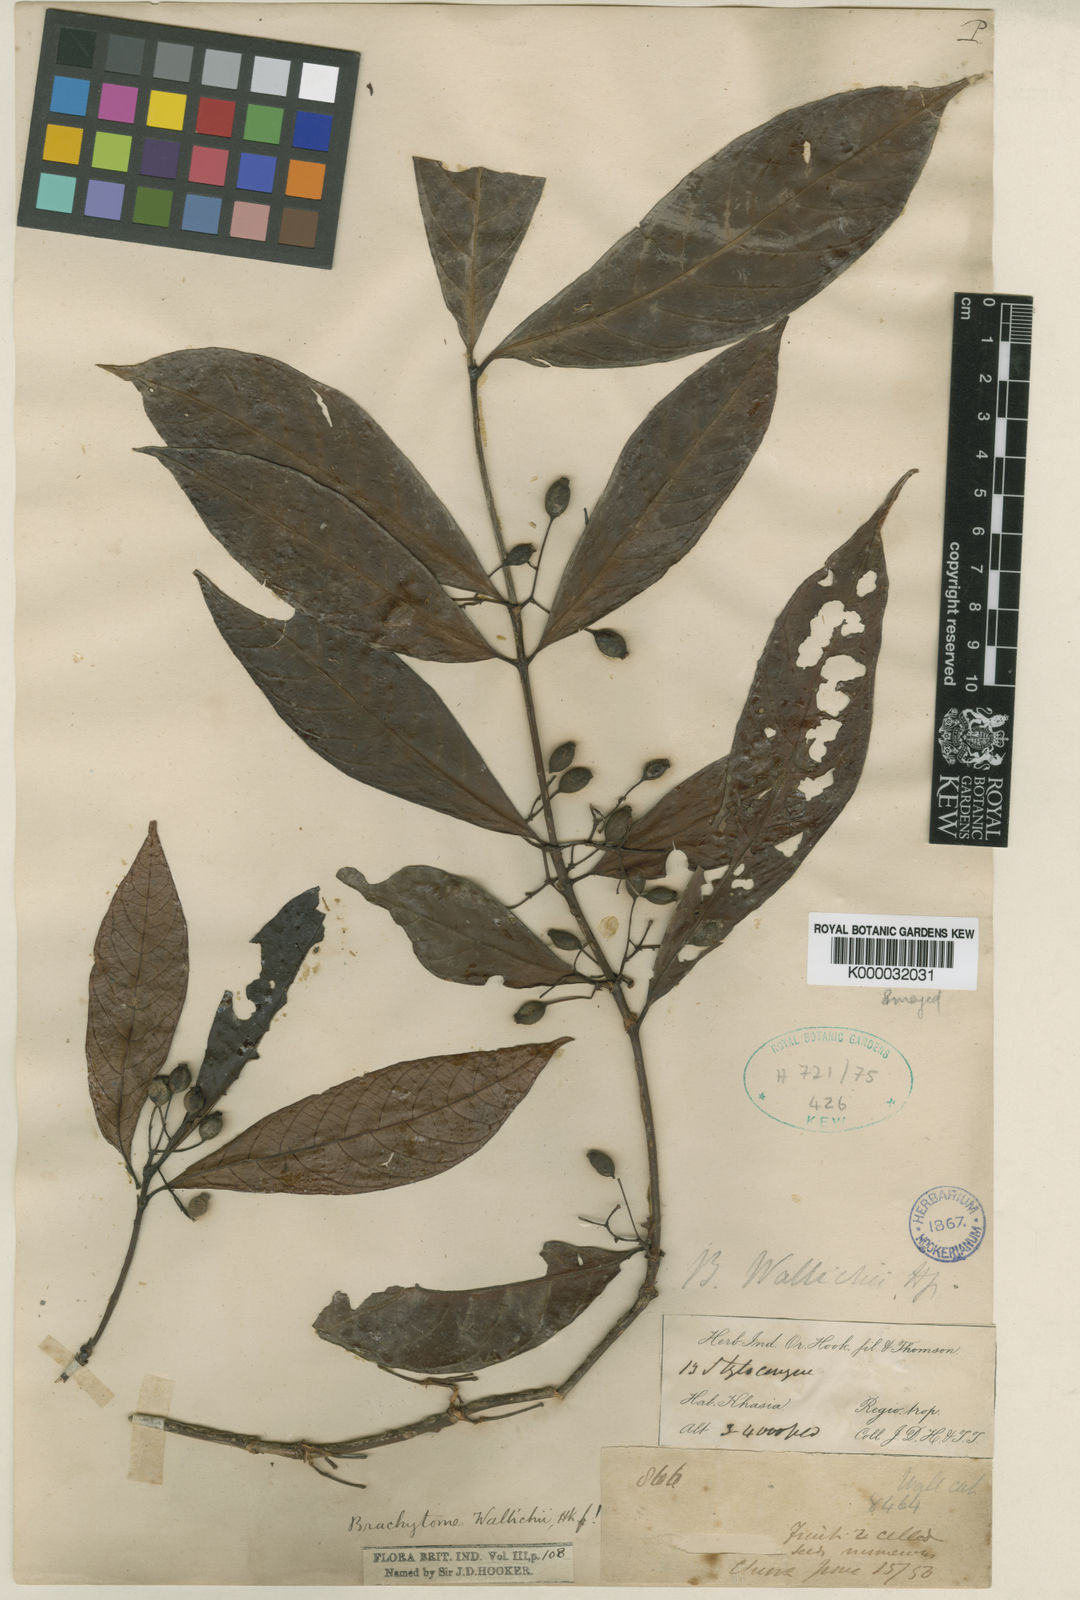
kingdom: Plantae
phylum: Tracheophyta
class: Magnoliopsida
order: Gentianales
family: Rubiaceae
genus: Brachytome
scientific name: Brachytome wallichii
